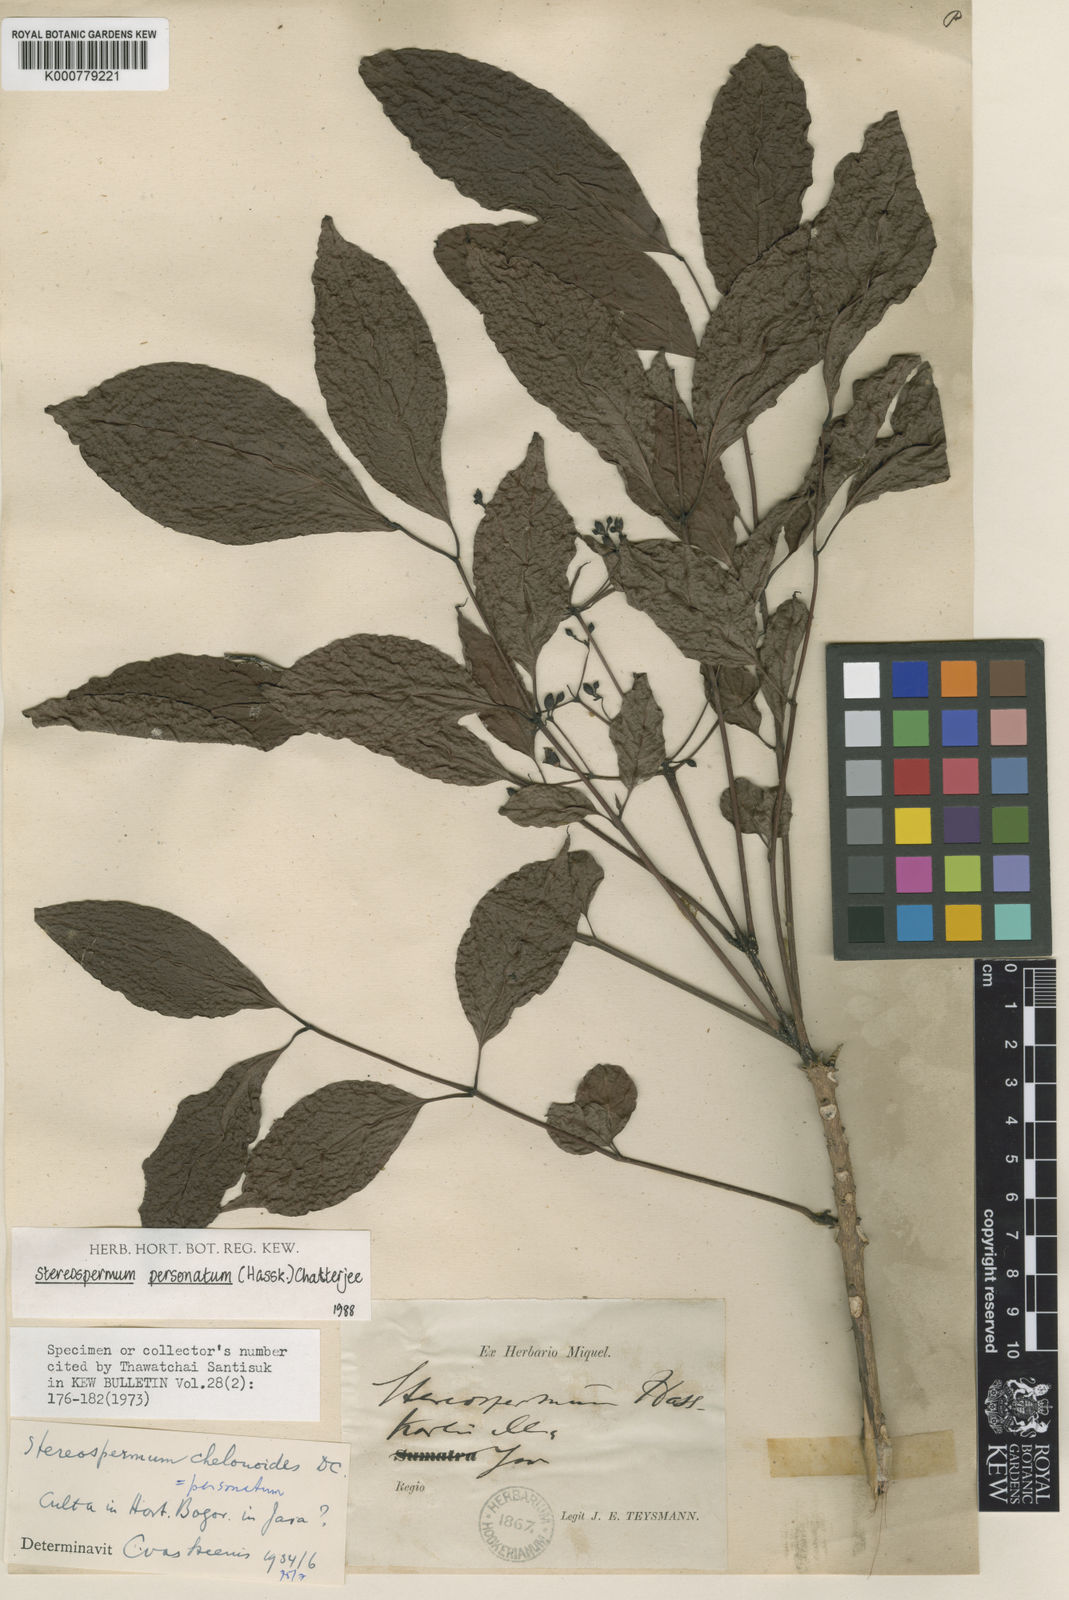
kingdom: Plantae
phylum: Tracheophyta
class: Magnoliopsida
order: Lamiales
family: Bignoniaceae
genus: Stereospermum
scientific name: Stereospermum colais
